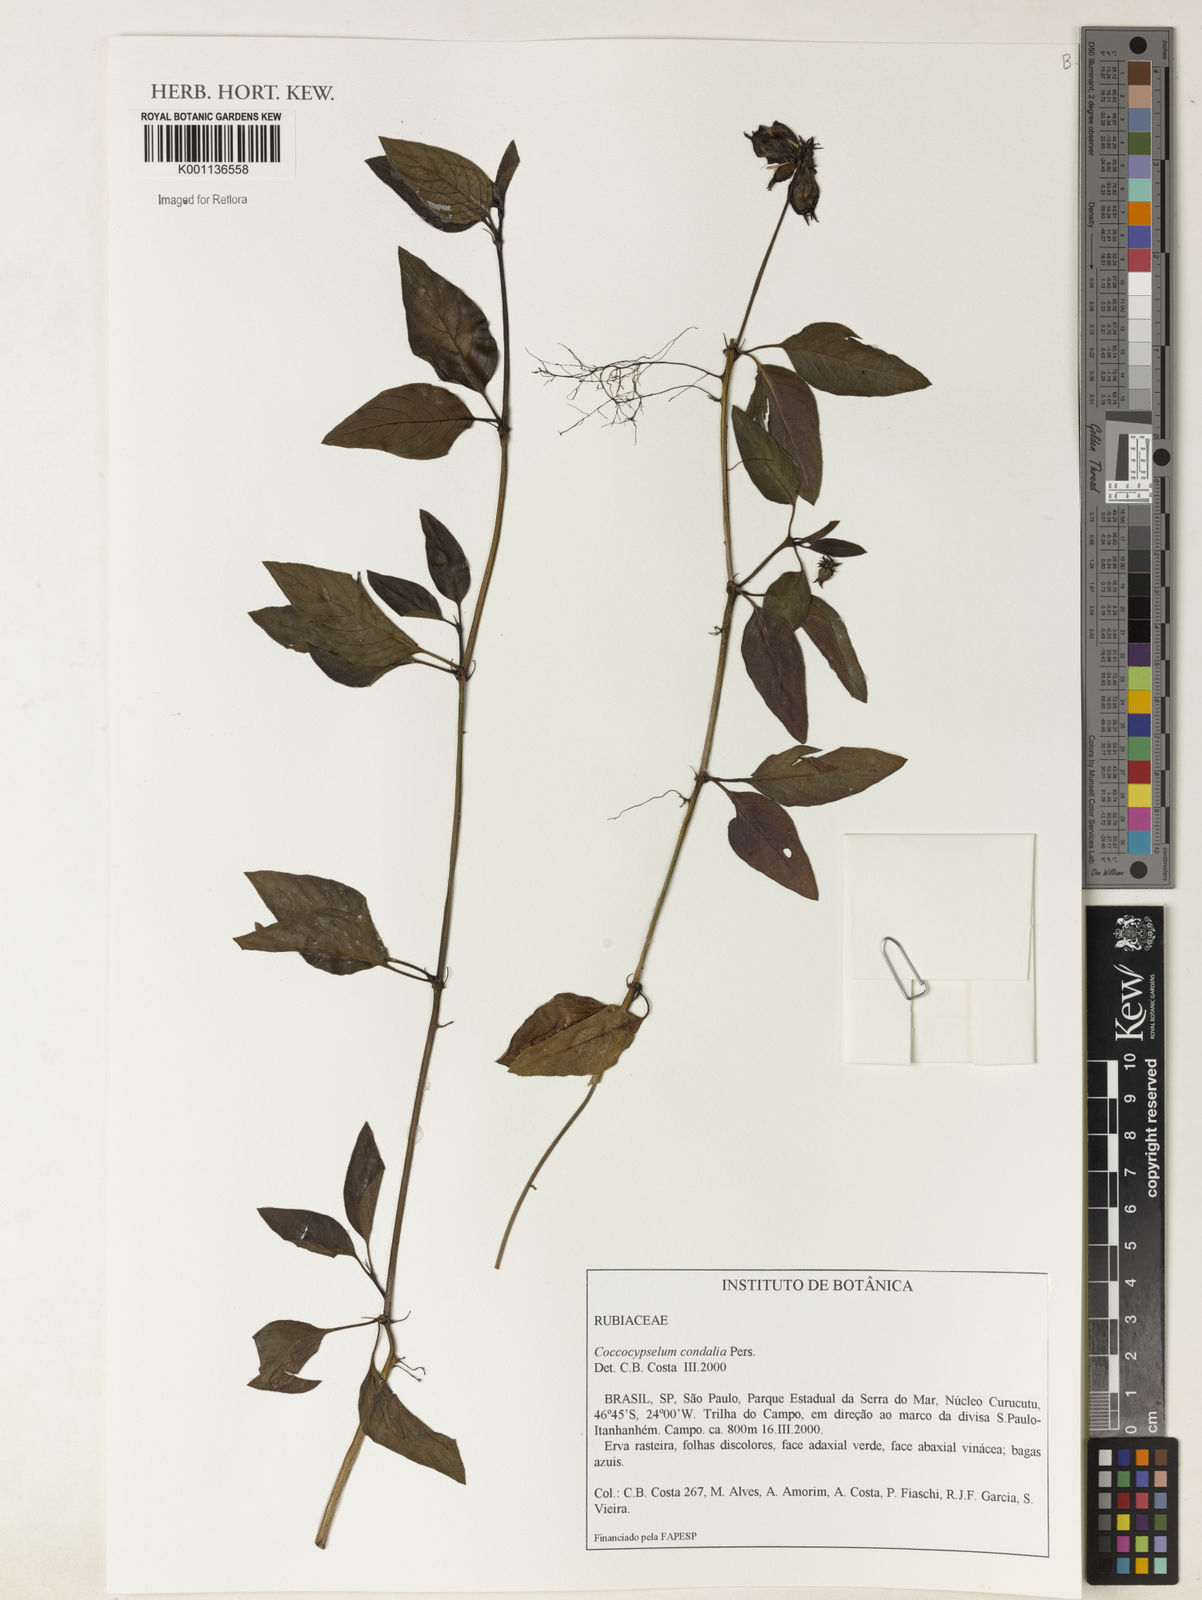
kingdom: Plantae
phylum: Tracheophyta
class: Magnoliopsida
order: Gentianales
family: Rubiaceae
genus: Coccocypselum
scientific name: Coccocypselum condalia
